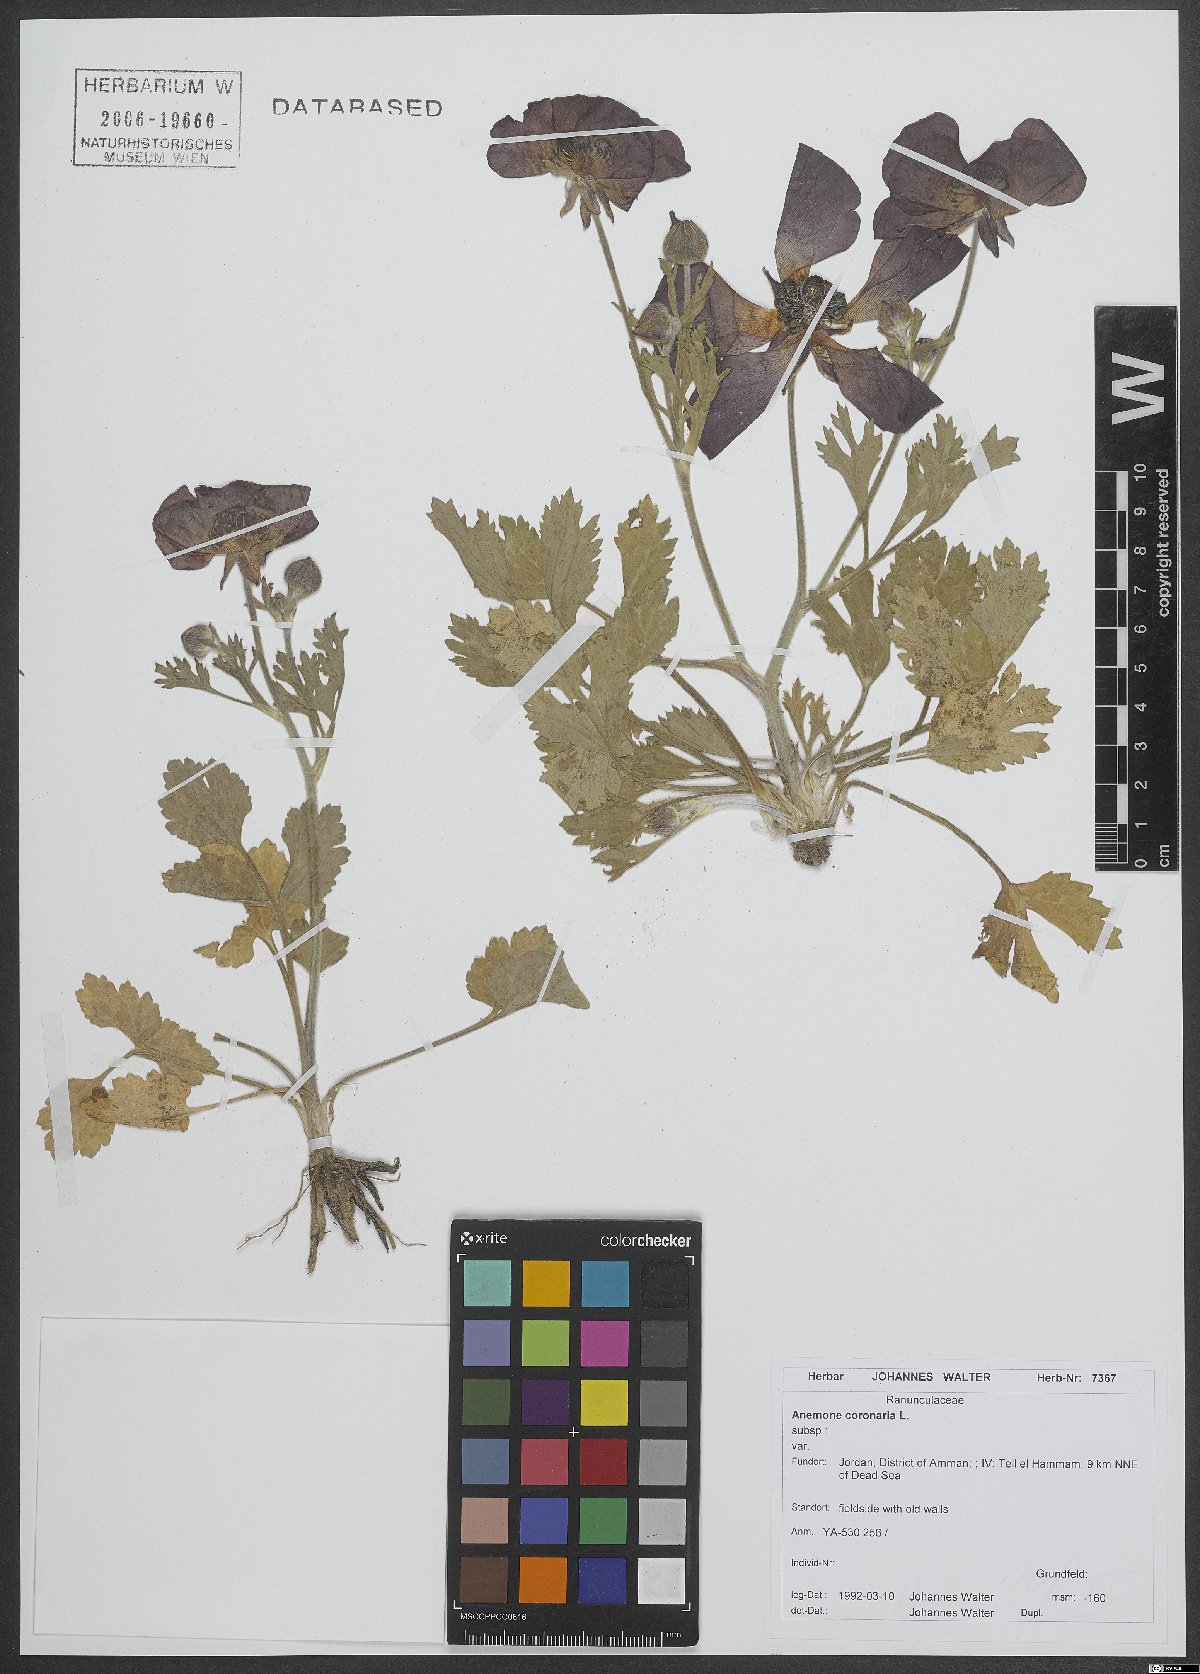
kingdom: Plantae
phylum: Tracheophyta
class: Magnoliopsida
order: Ranunculales
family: Ranunculaceae
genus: Anemone
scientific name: Anemone coronaria
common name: Poppy anemone
